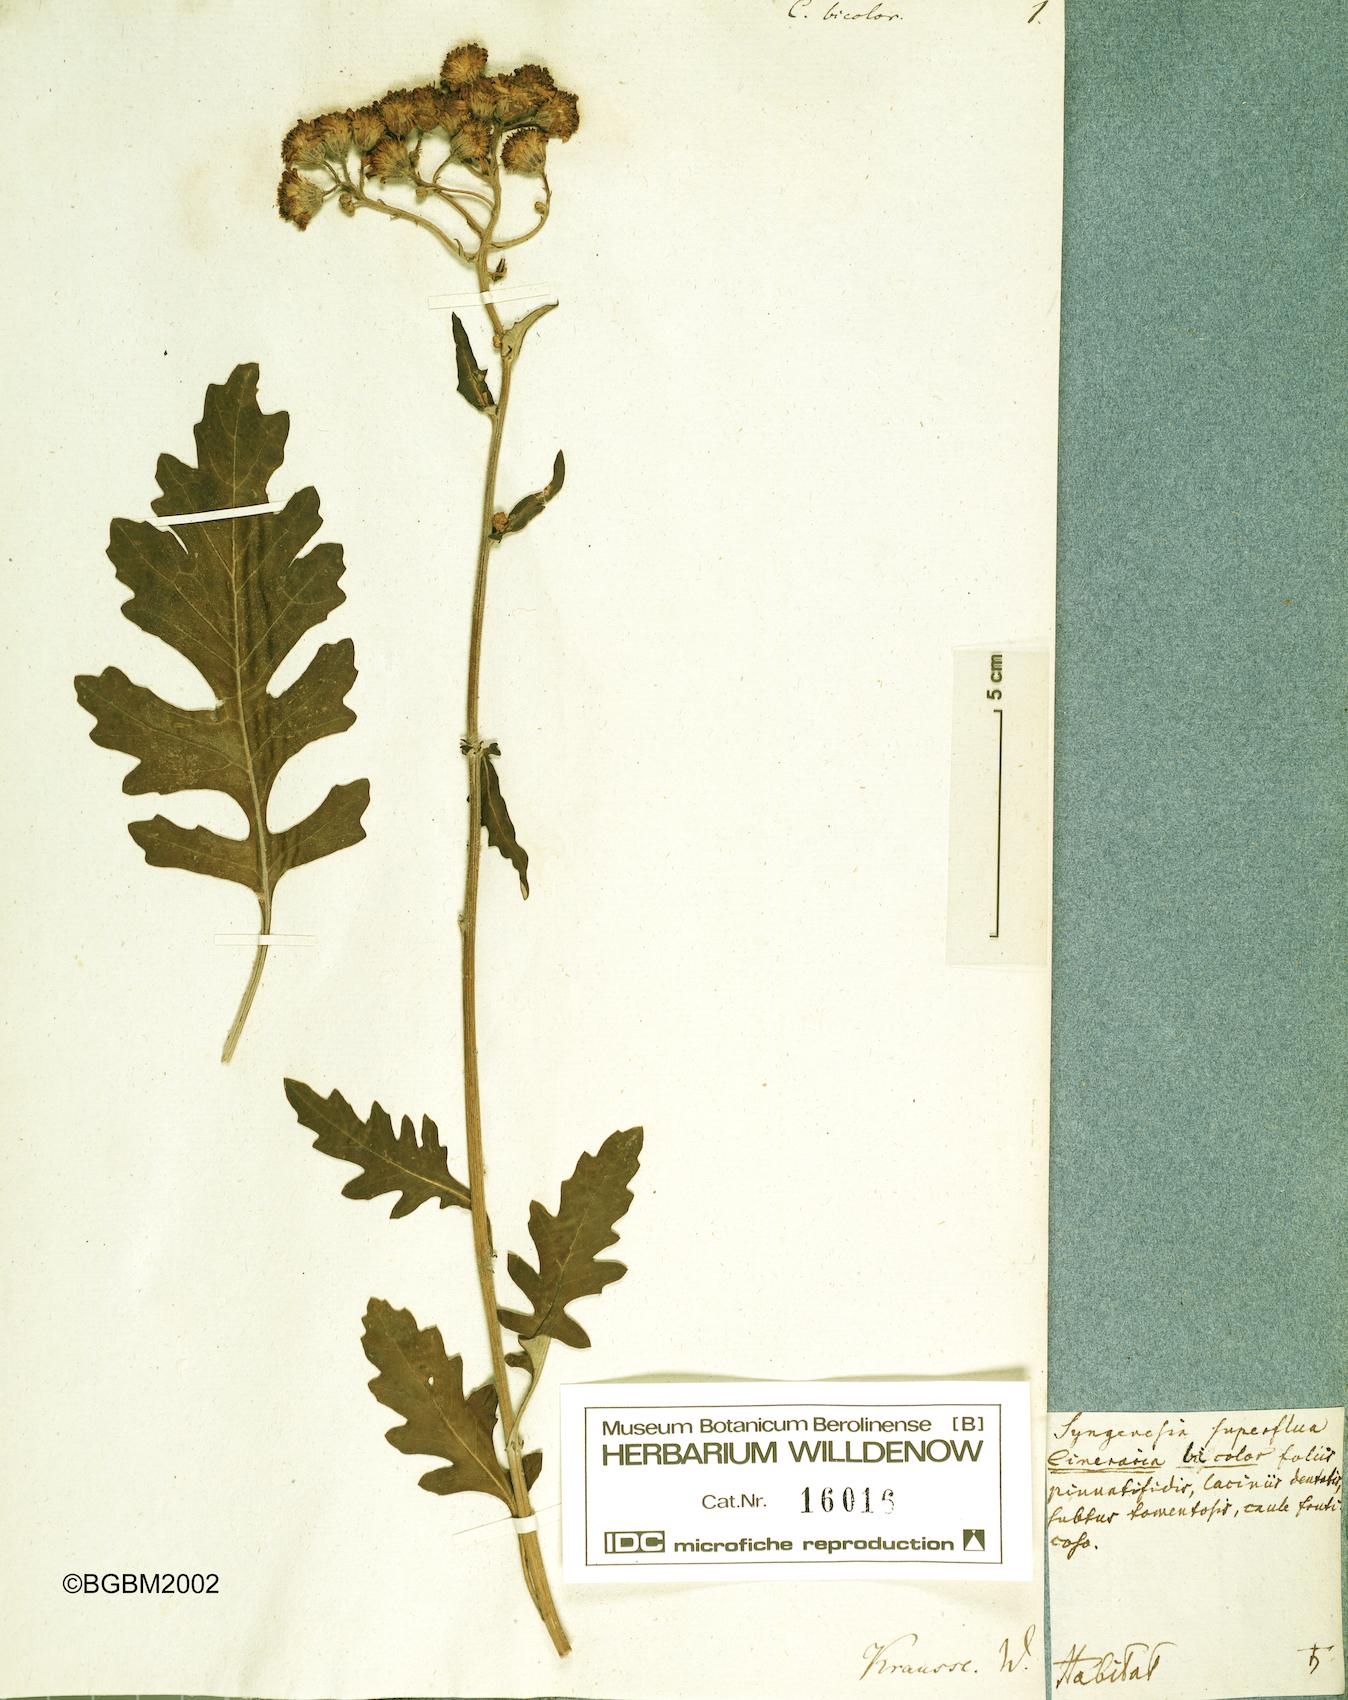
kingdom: Plantae
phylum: Tracheophyta
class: Magnoliopsida
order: Asterales
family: Asteraceae
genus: Jacobaea
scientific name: Jacobaea maritima
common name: Silver ragwort
